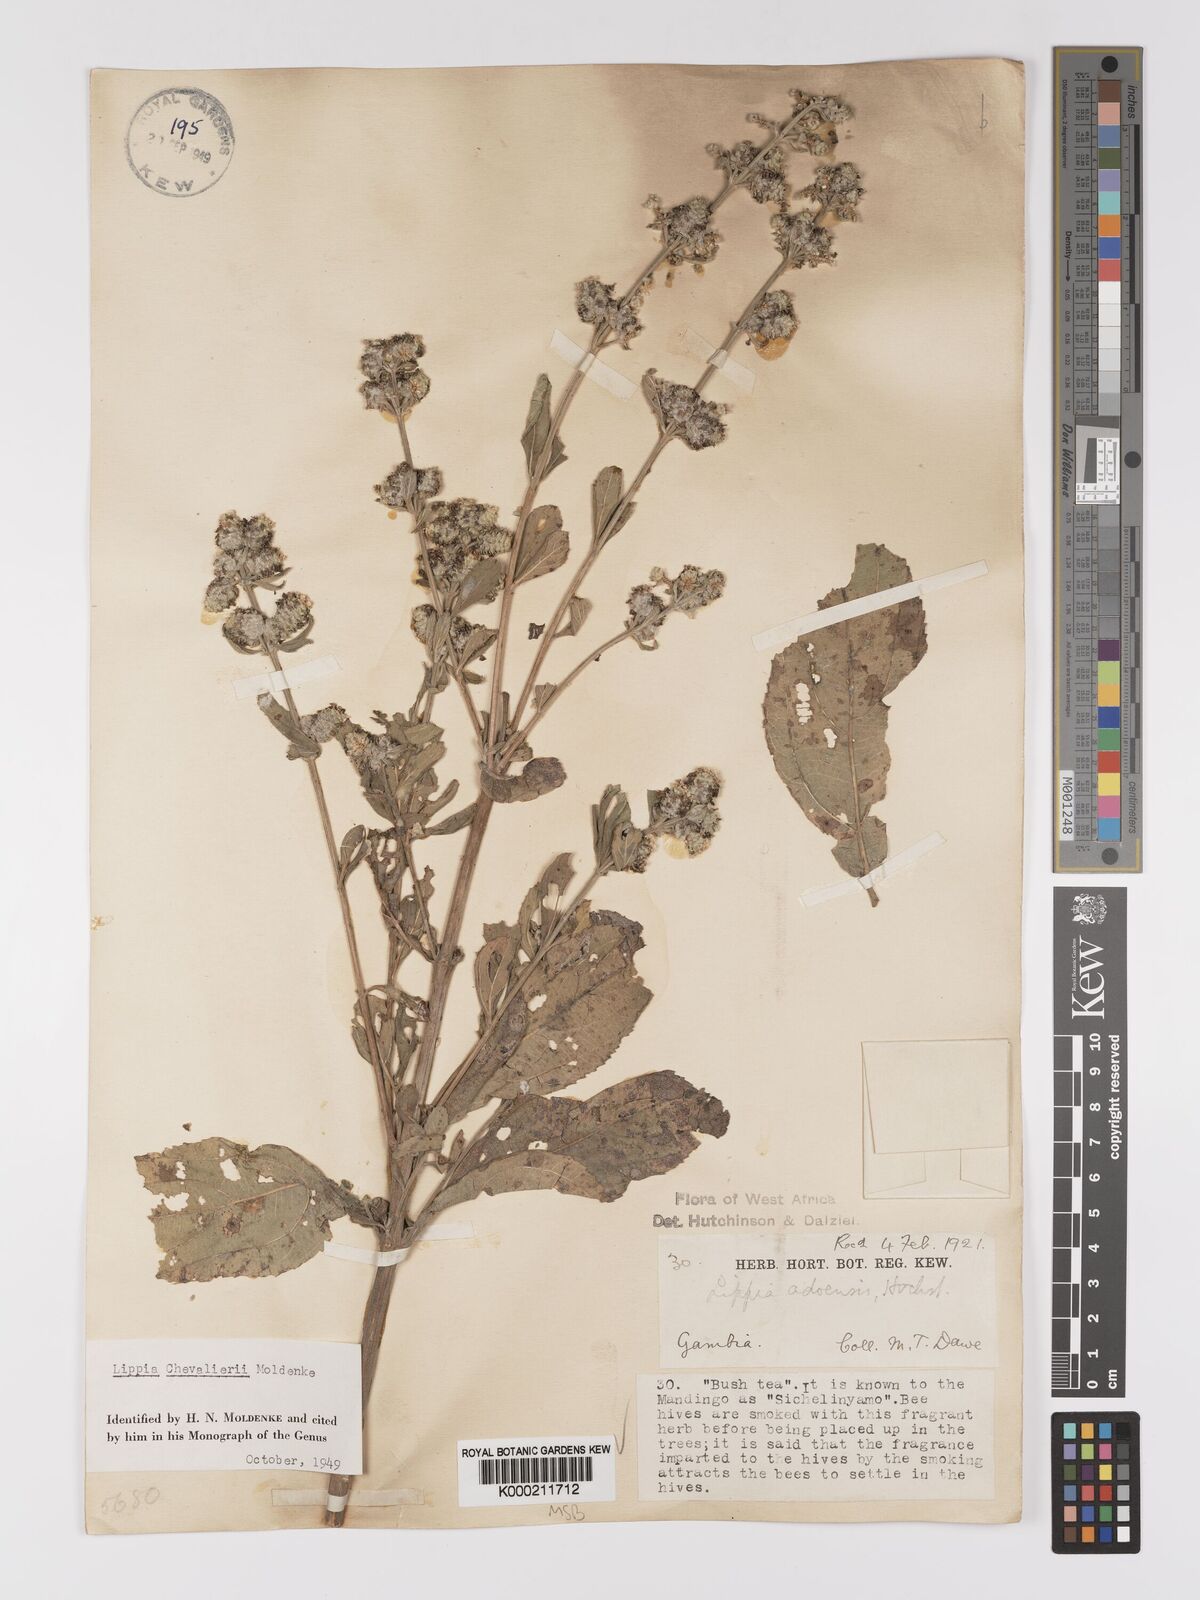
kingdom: Plantae
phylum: Tracheophyta
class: Magnoliopsida
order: Lamiales
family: Verbenaceae
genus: Lippia
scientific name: Lippia chevalieri
